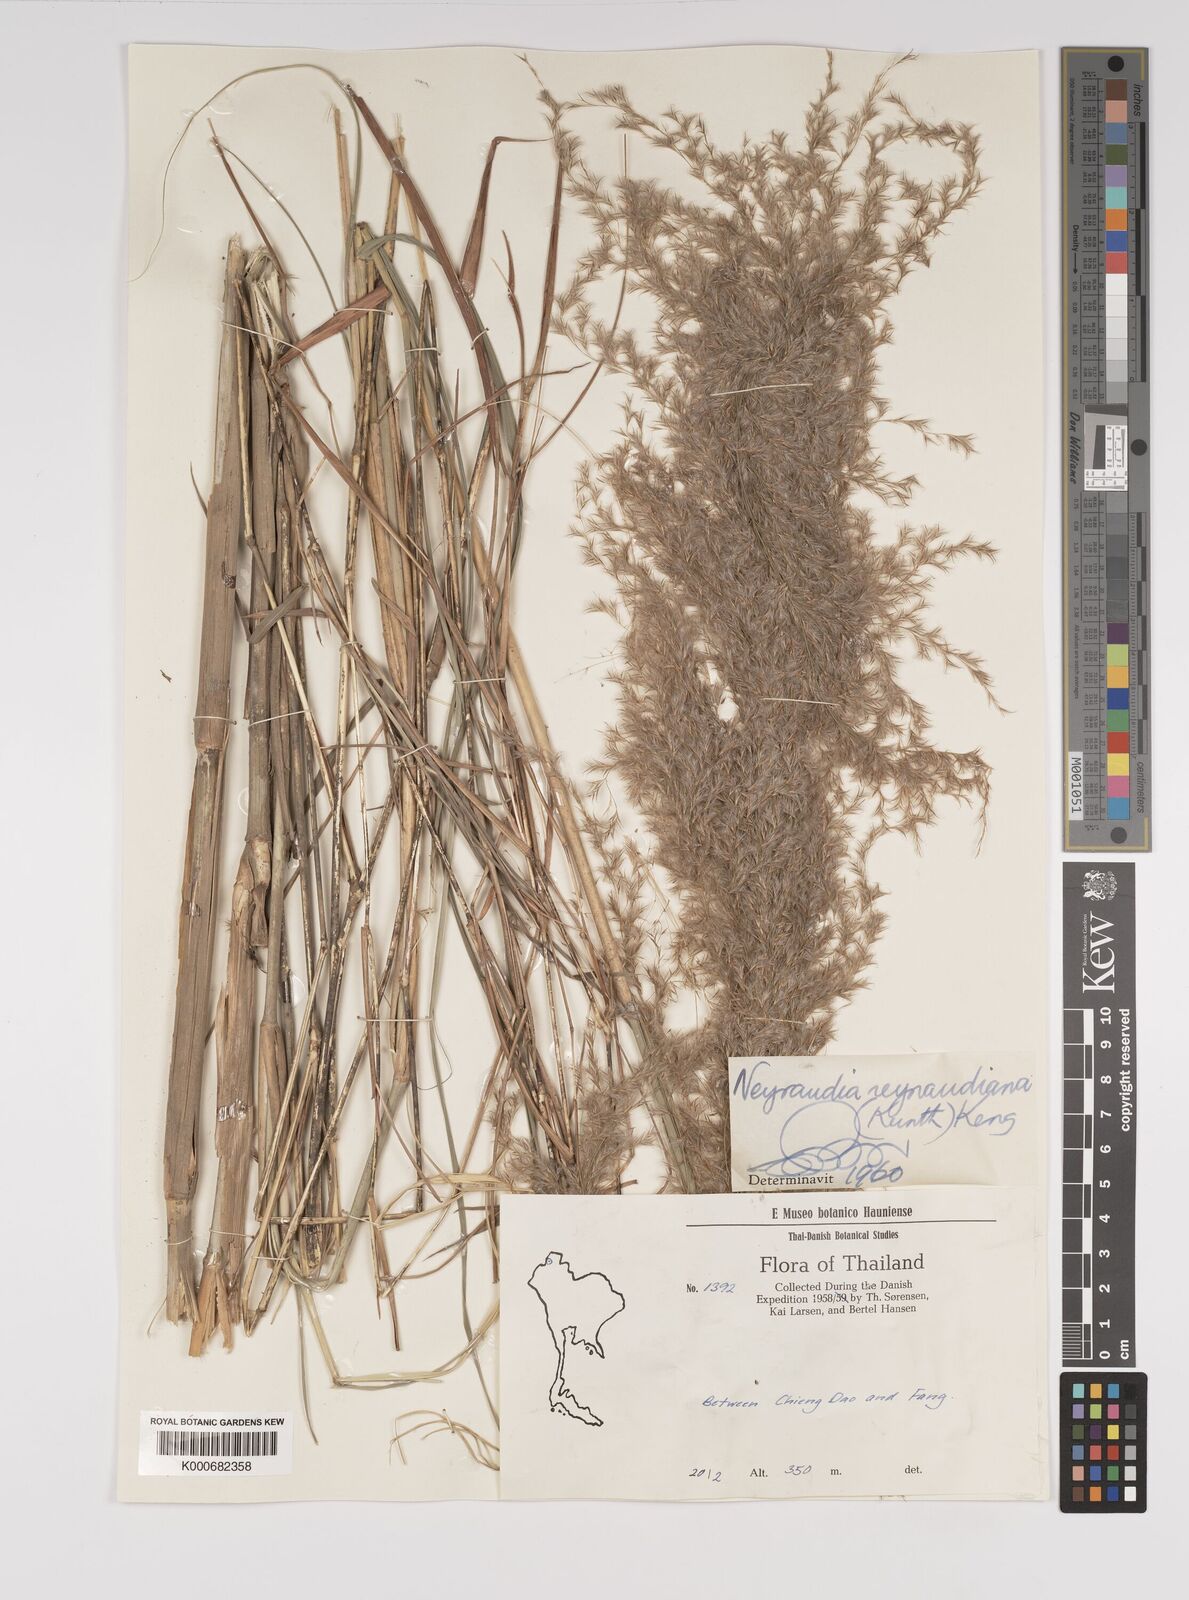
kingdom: Plantae
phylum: Tracheophyta
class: Liliopsida
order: Poales
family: Poaceae
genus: Neyraudia
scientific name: Neyraudia reynaudiana
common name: Silkreed
